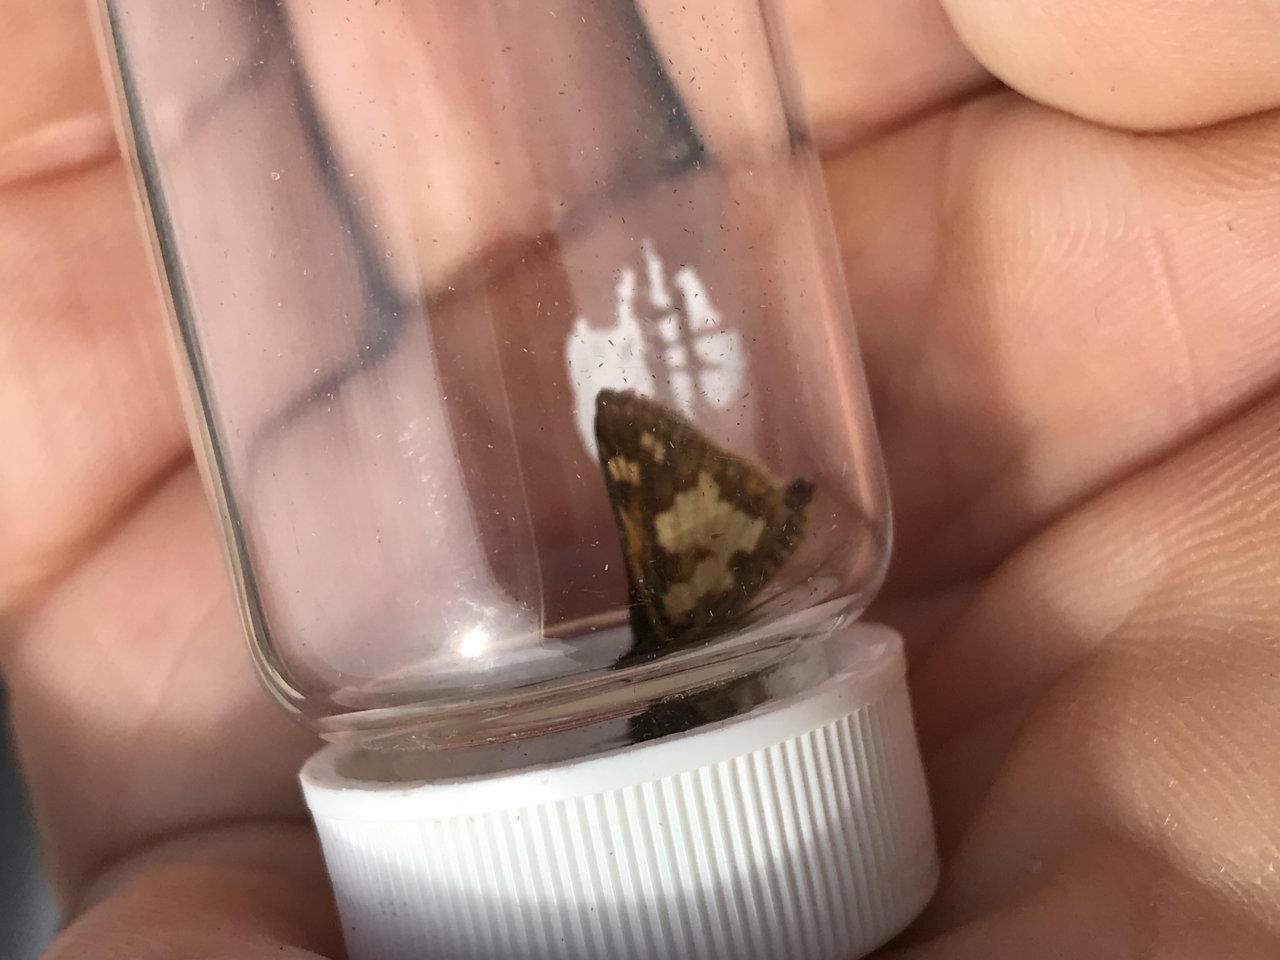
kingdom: Animalia
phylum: Arthropoda
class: Insecta
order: Lepidoptera
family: Hesperiidae
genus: Polites
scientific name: Polites coras
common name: Peck's Skipper
